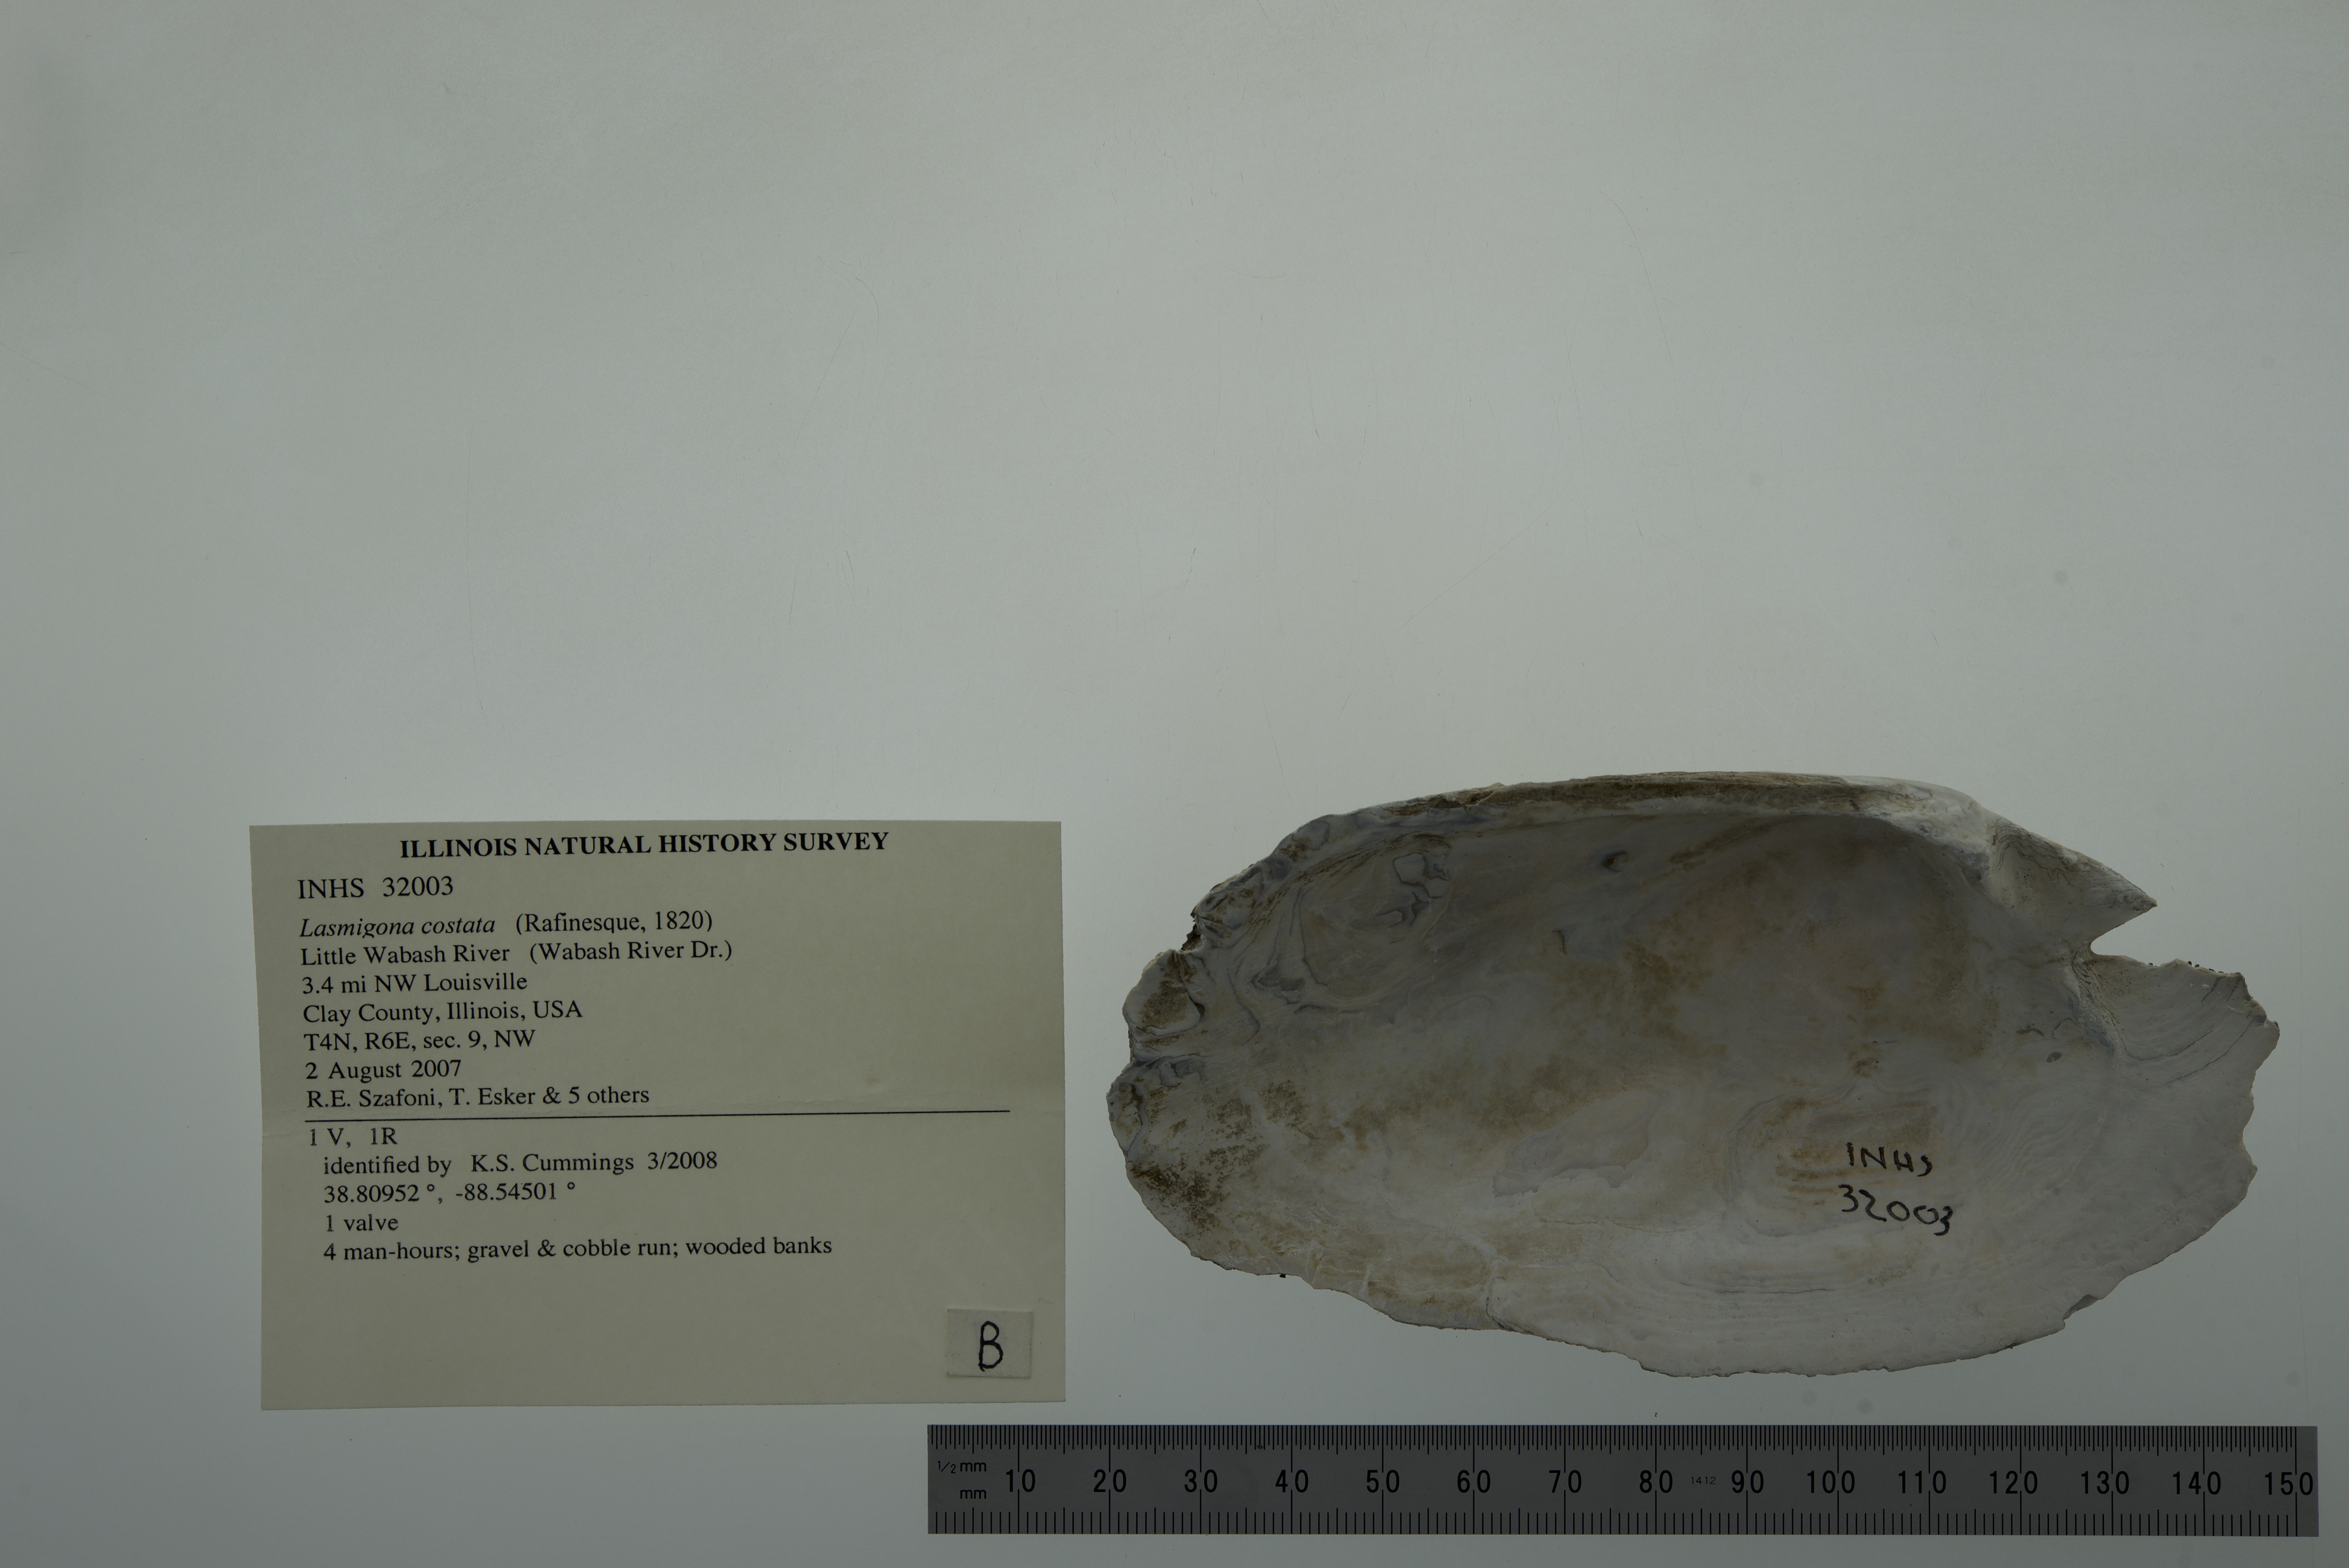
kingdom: Animalia
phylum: Mollusca
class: Bivalvia
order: Unionida
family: Unionidae
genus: Lasmigona
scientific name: Lasmigona costata
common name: Flutedshell
